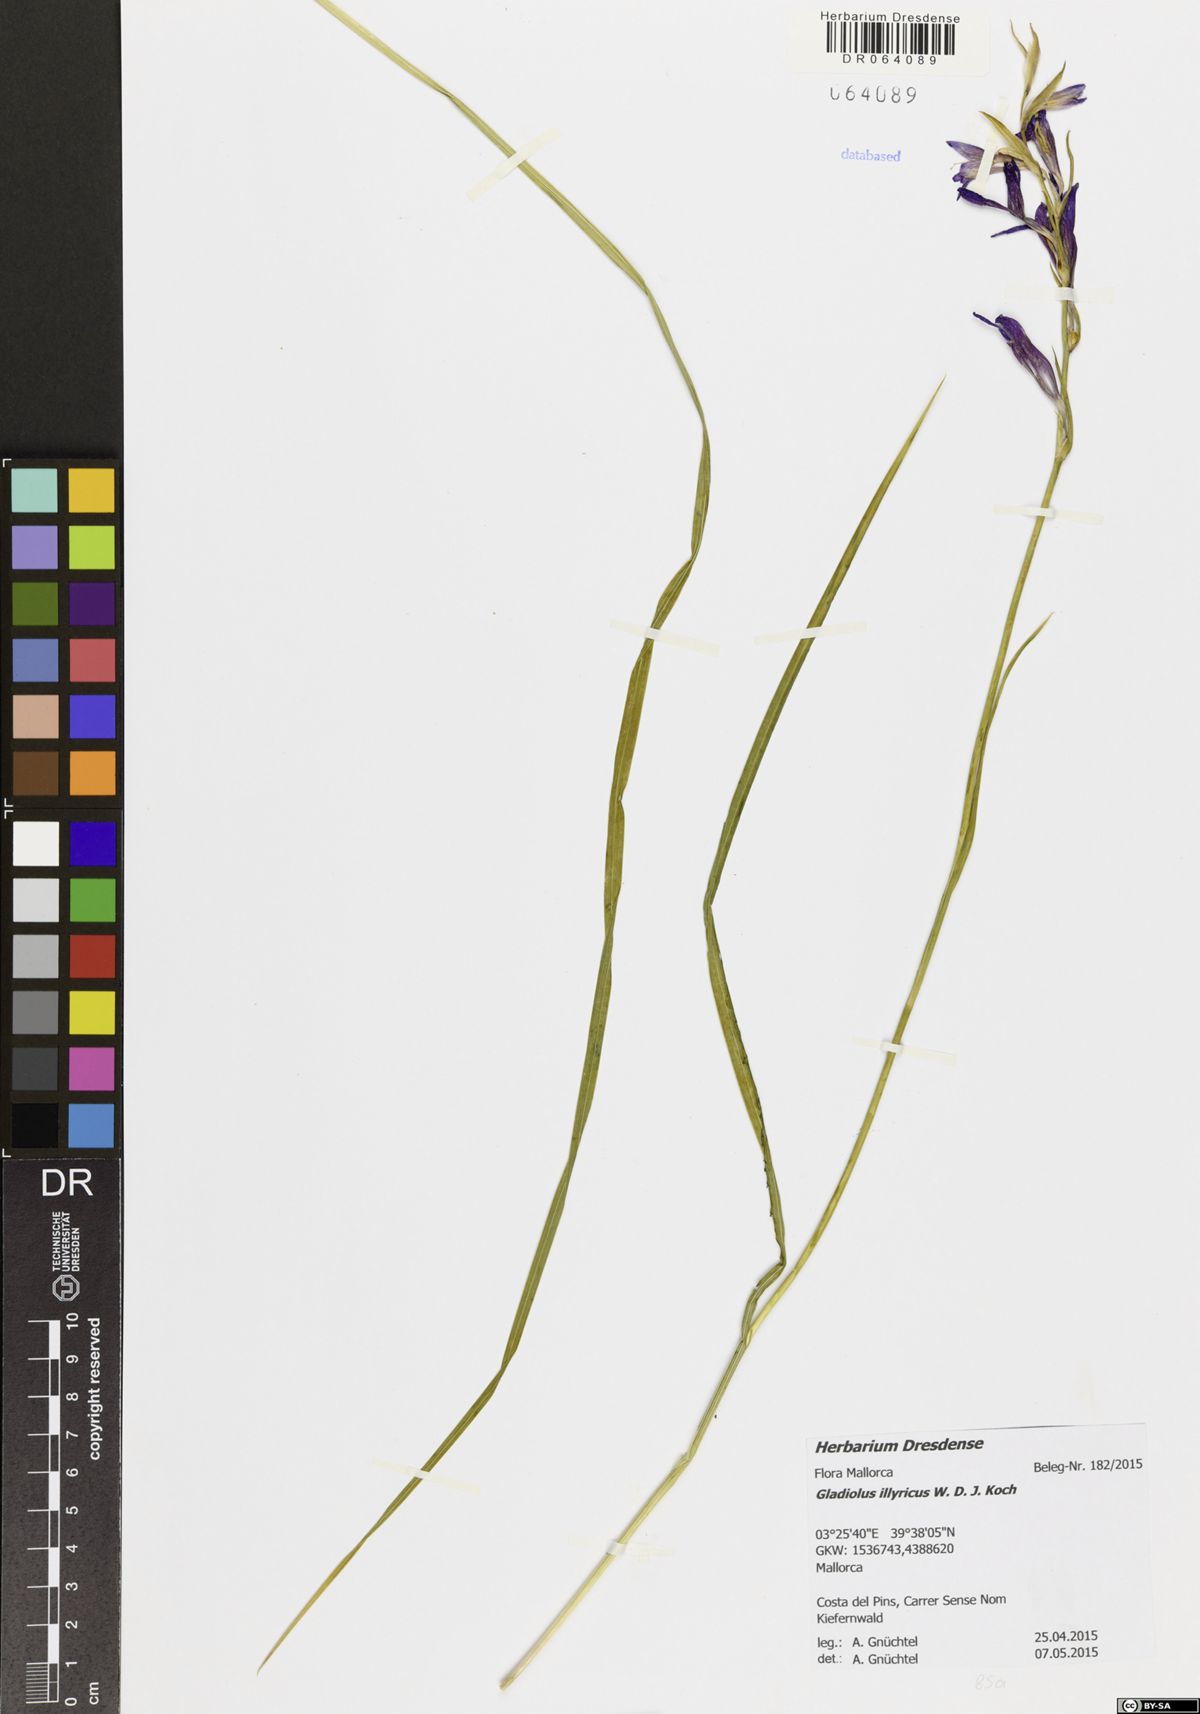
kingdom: Plantae
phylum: Tracheophyta
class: Liliopsida
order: Asparagales
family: Iridaceae
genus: Gladiolus
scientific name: Gladiolus illyricus
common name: Wild gladiolus
